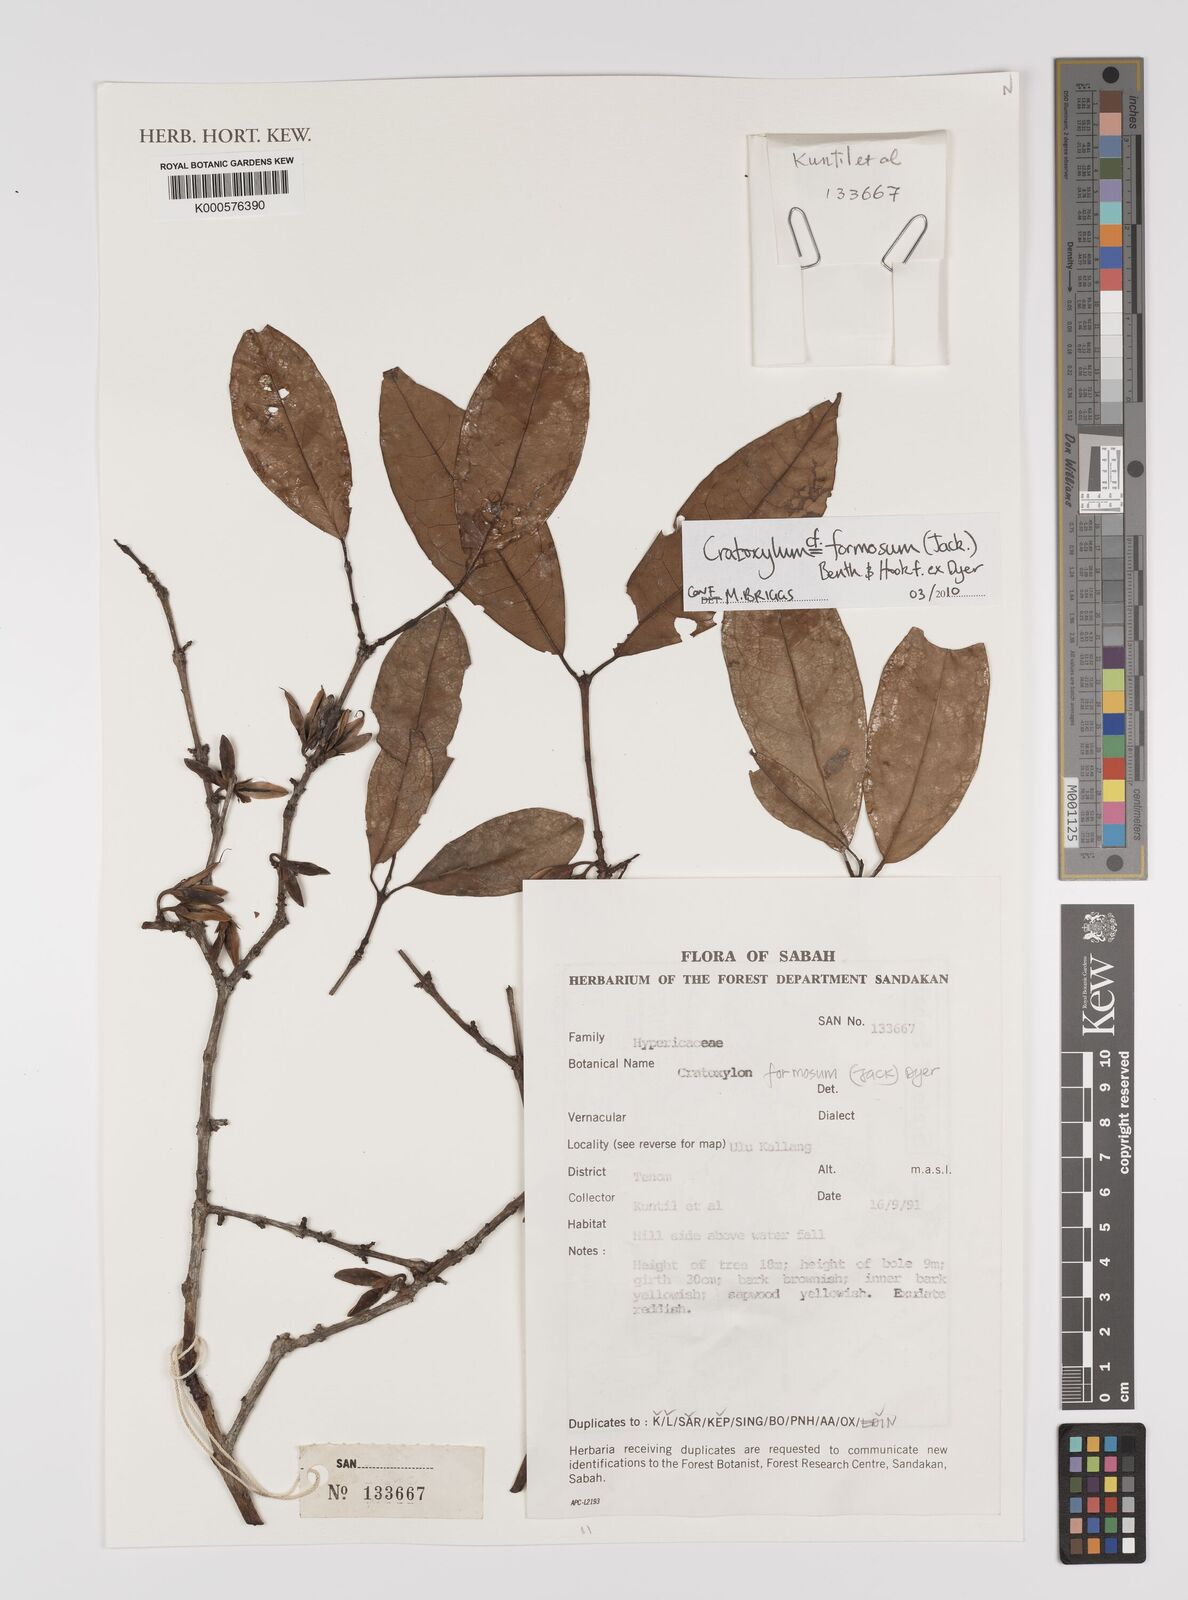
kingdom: Plantae
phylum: Tracheophyta
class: Magnoliopsida
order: Malpighiales
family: Hypericaceae
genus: Cratoxylum
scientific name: Cratoxylum formosum
